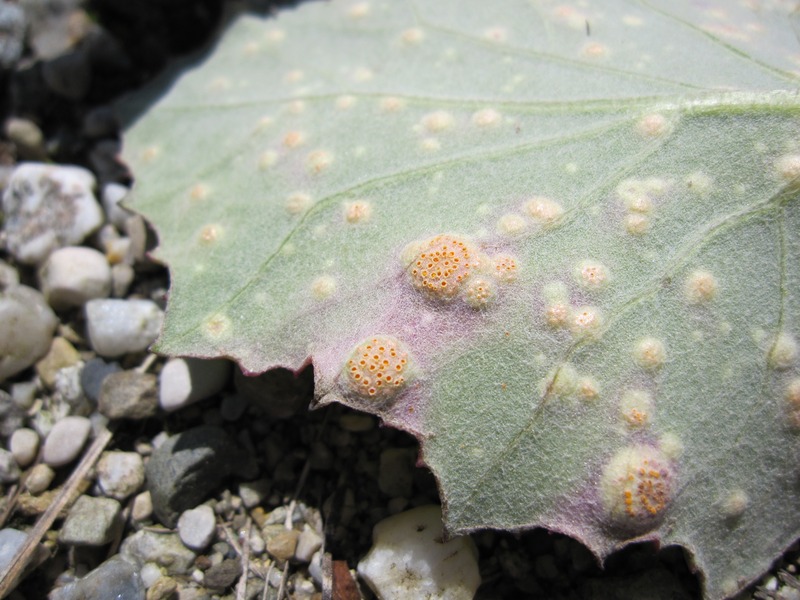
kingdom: Fungi
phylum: Basidiomycota
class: Pucciniomycetes
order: Pucciniales
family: Pucciniaceae
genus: Puccinia
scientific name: Puccinia poarum
